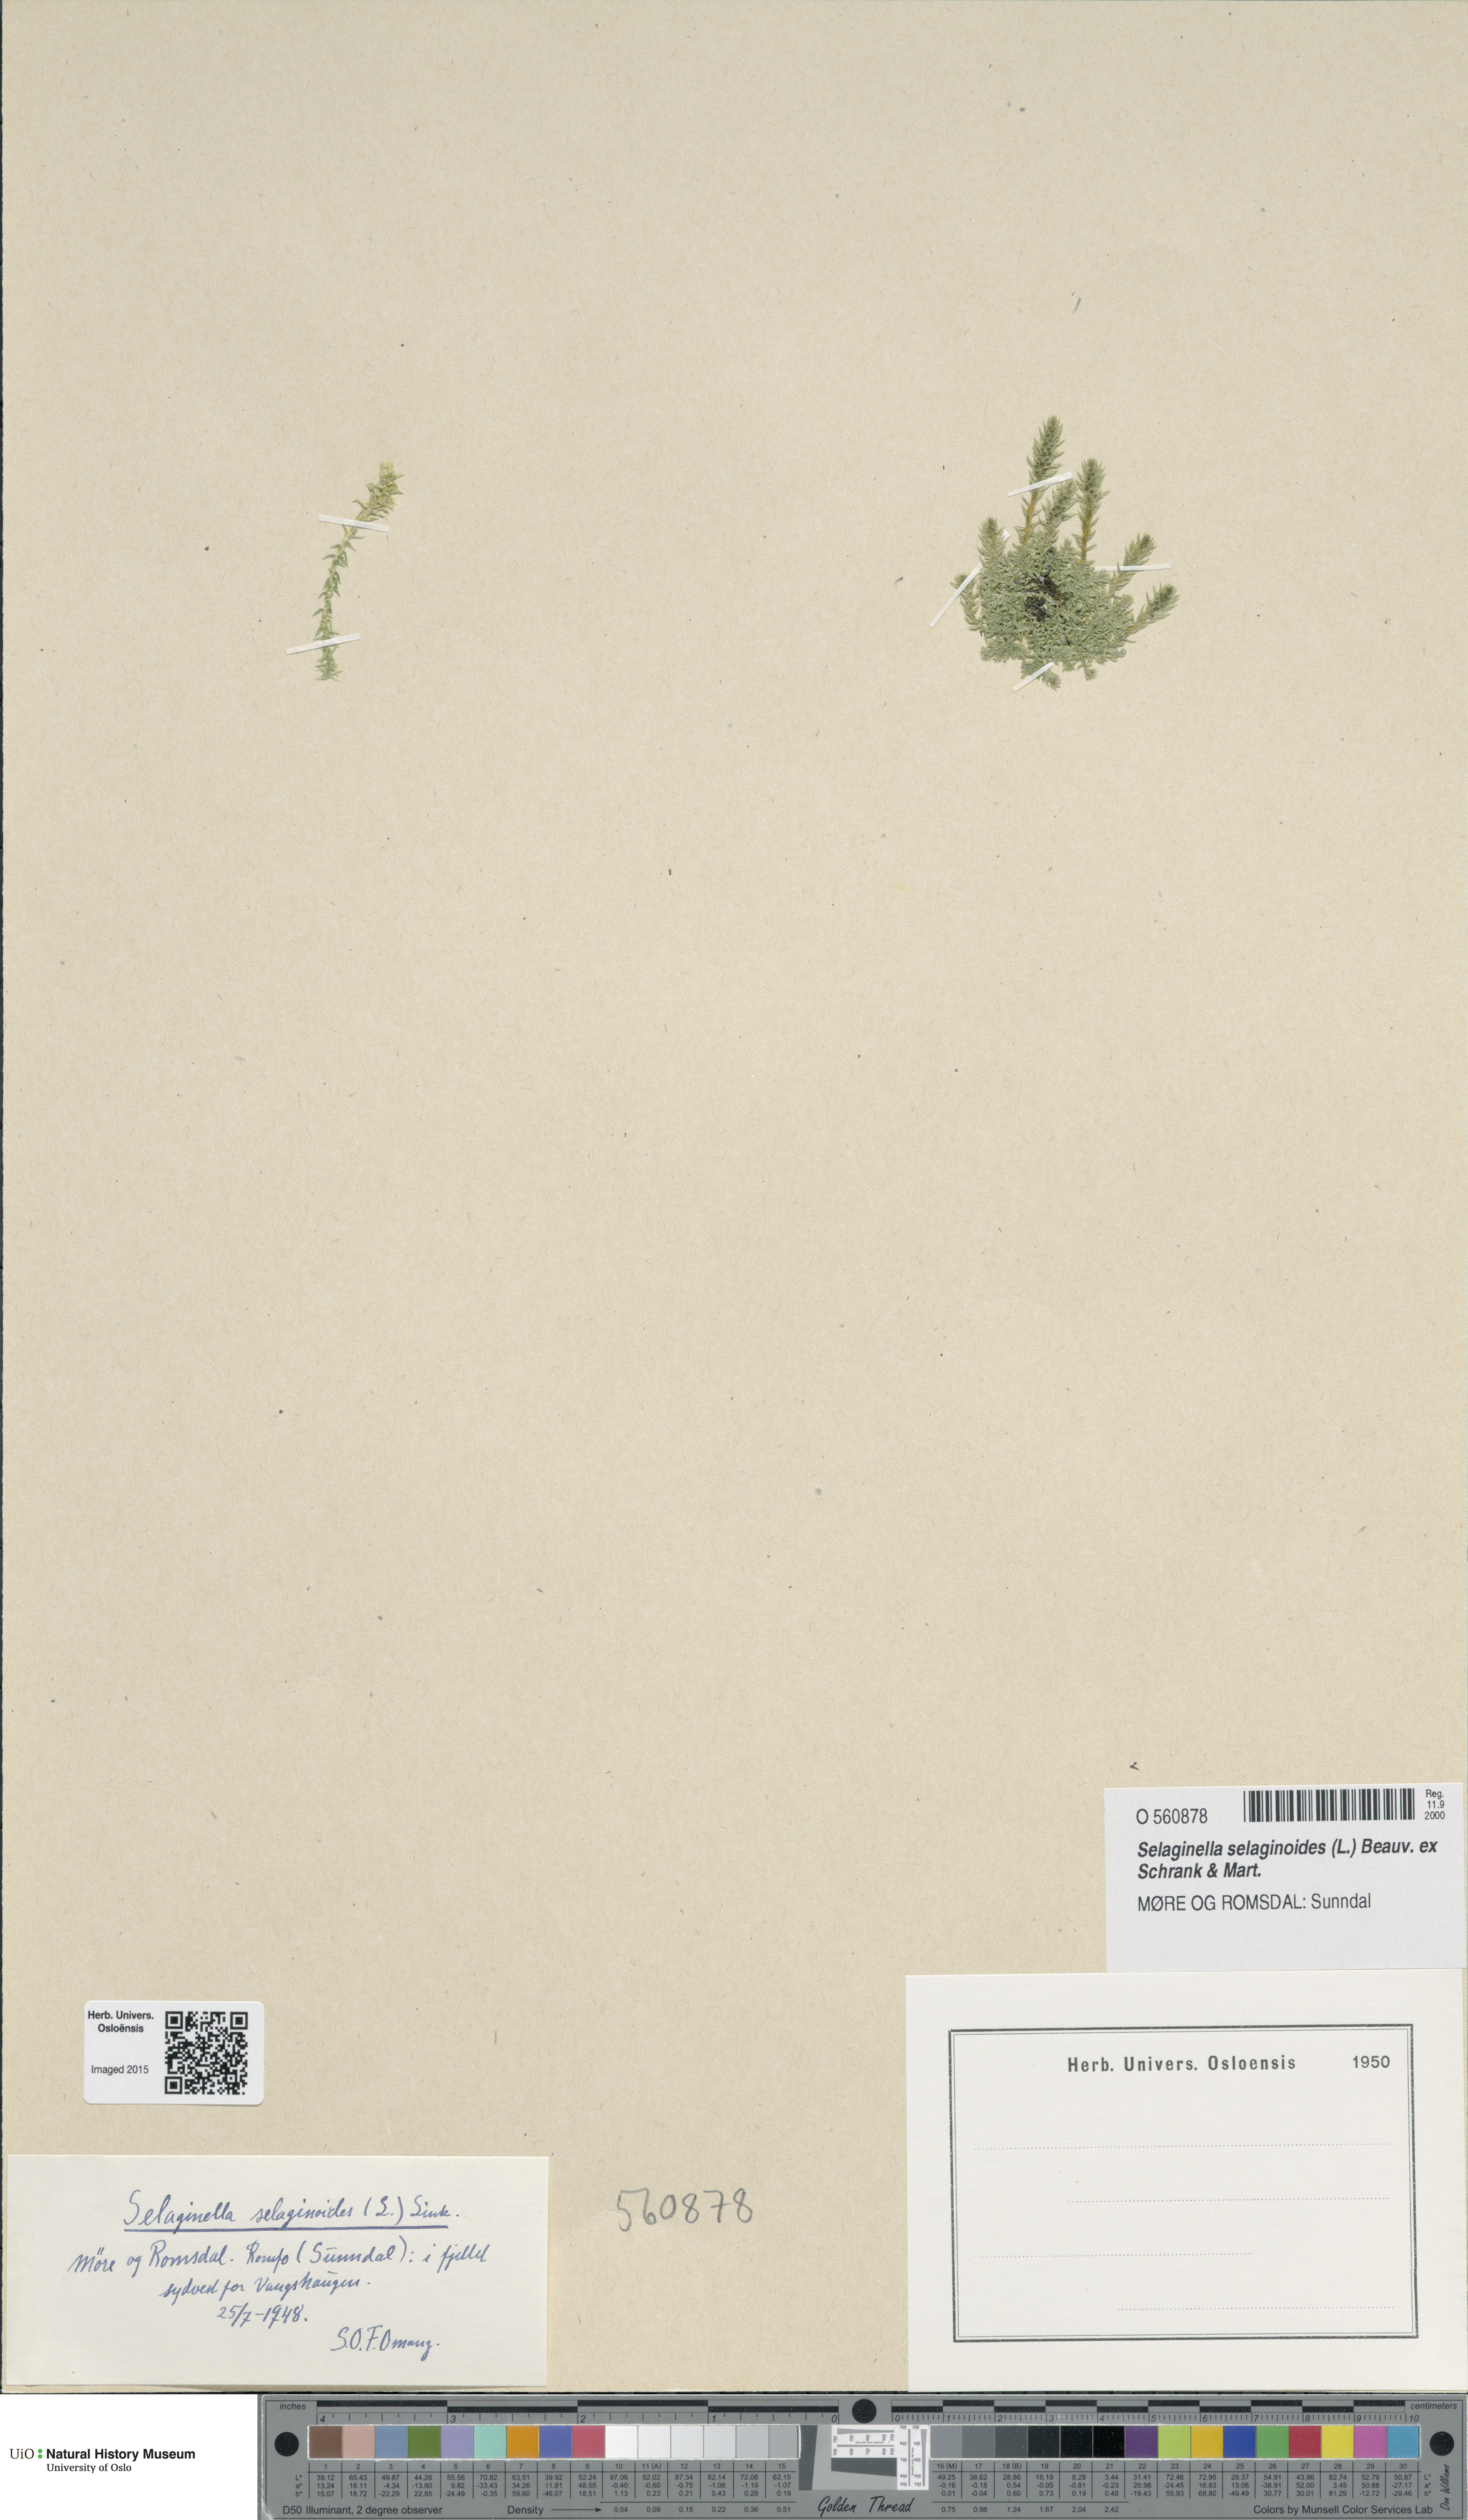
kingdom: Plantae
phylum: Tracheophyta
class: Lycopodiopsida
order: Selaginellales
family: Selaginellaceae
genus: Selaginella
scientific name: Selaginella selaginoides
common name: Prickly mountain-moss
